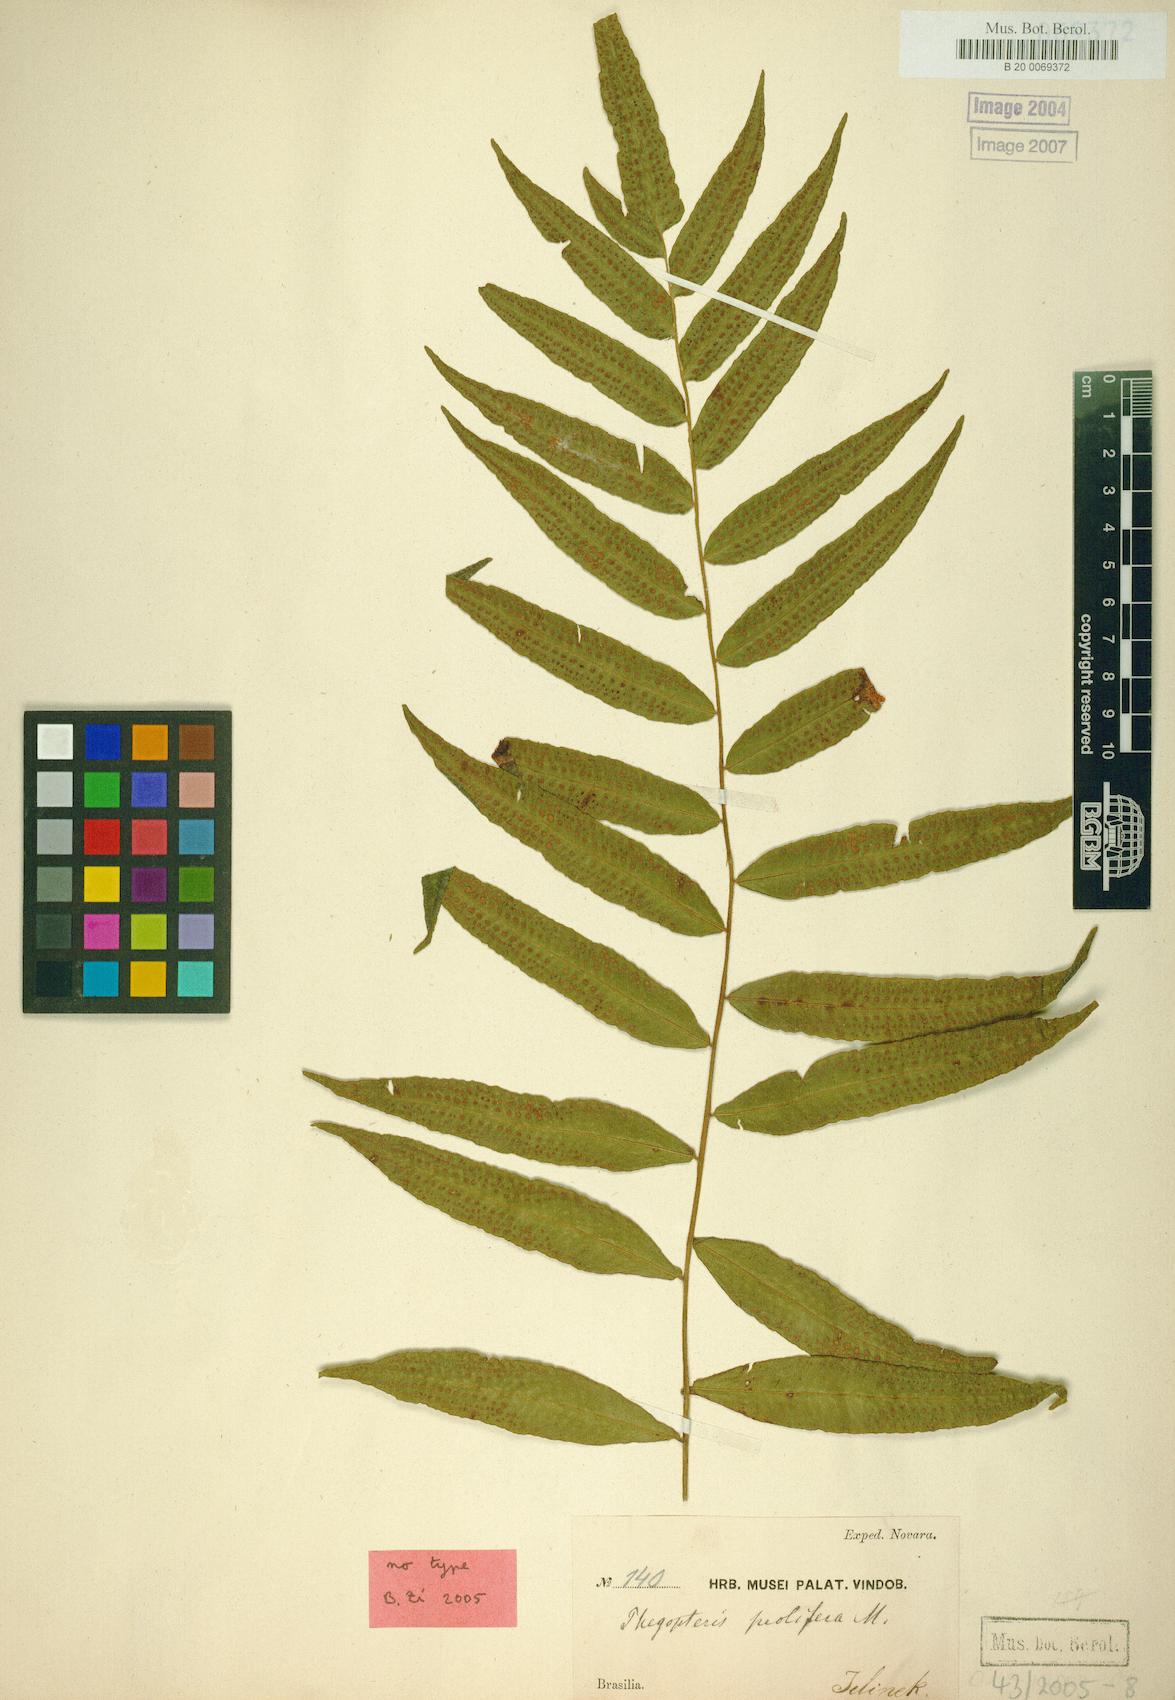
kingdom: Plantae
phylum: Tracheophyta
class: Polypodiopsida
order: Polypodiales
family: Thelypteridaceae
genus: Goniopteris
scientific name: Goniopteris platypes
